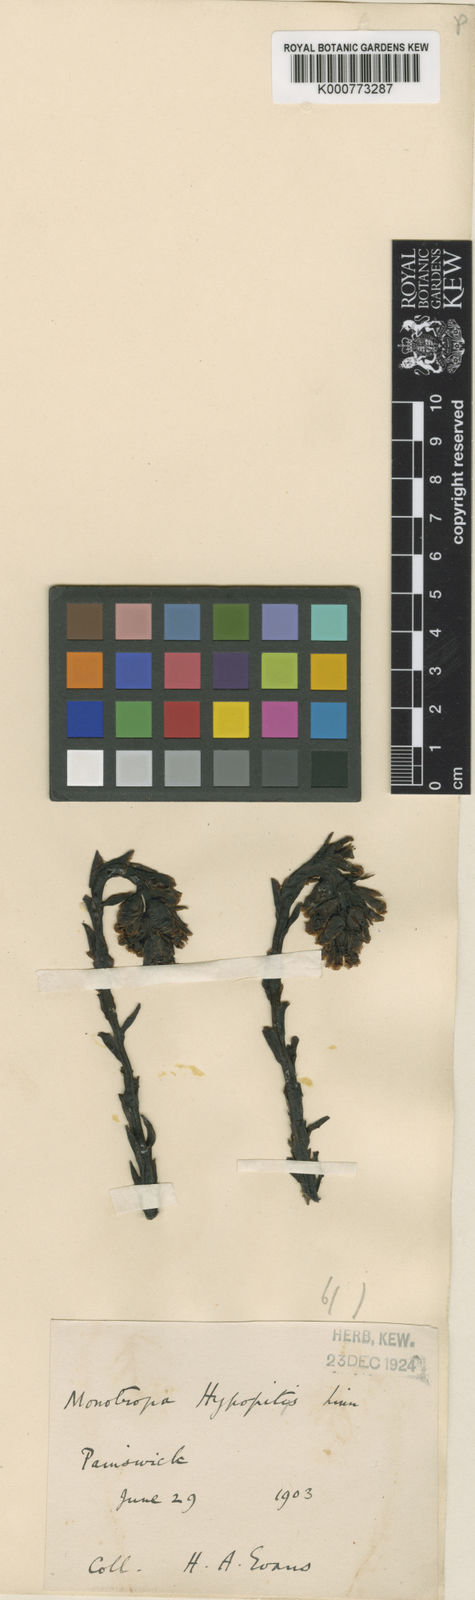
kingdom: Plantae
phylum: Tracheophyta
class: Magnoliopsida
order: Ericales
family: Ericaceae
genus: Monotropa
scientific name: Monotropa
